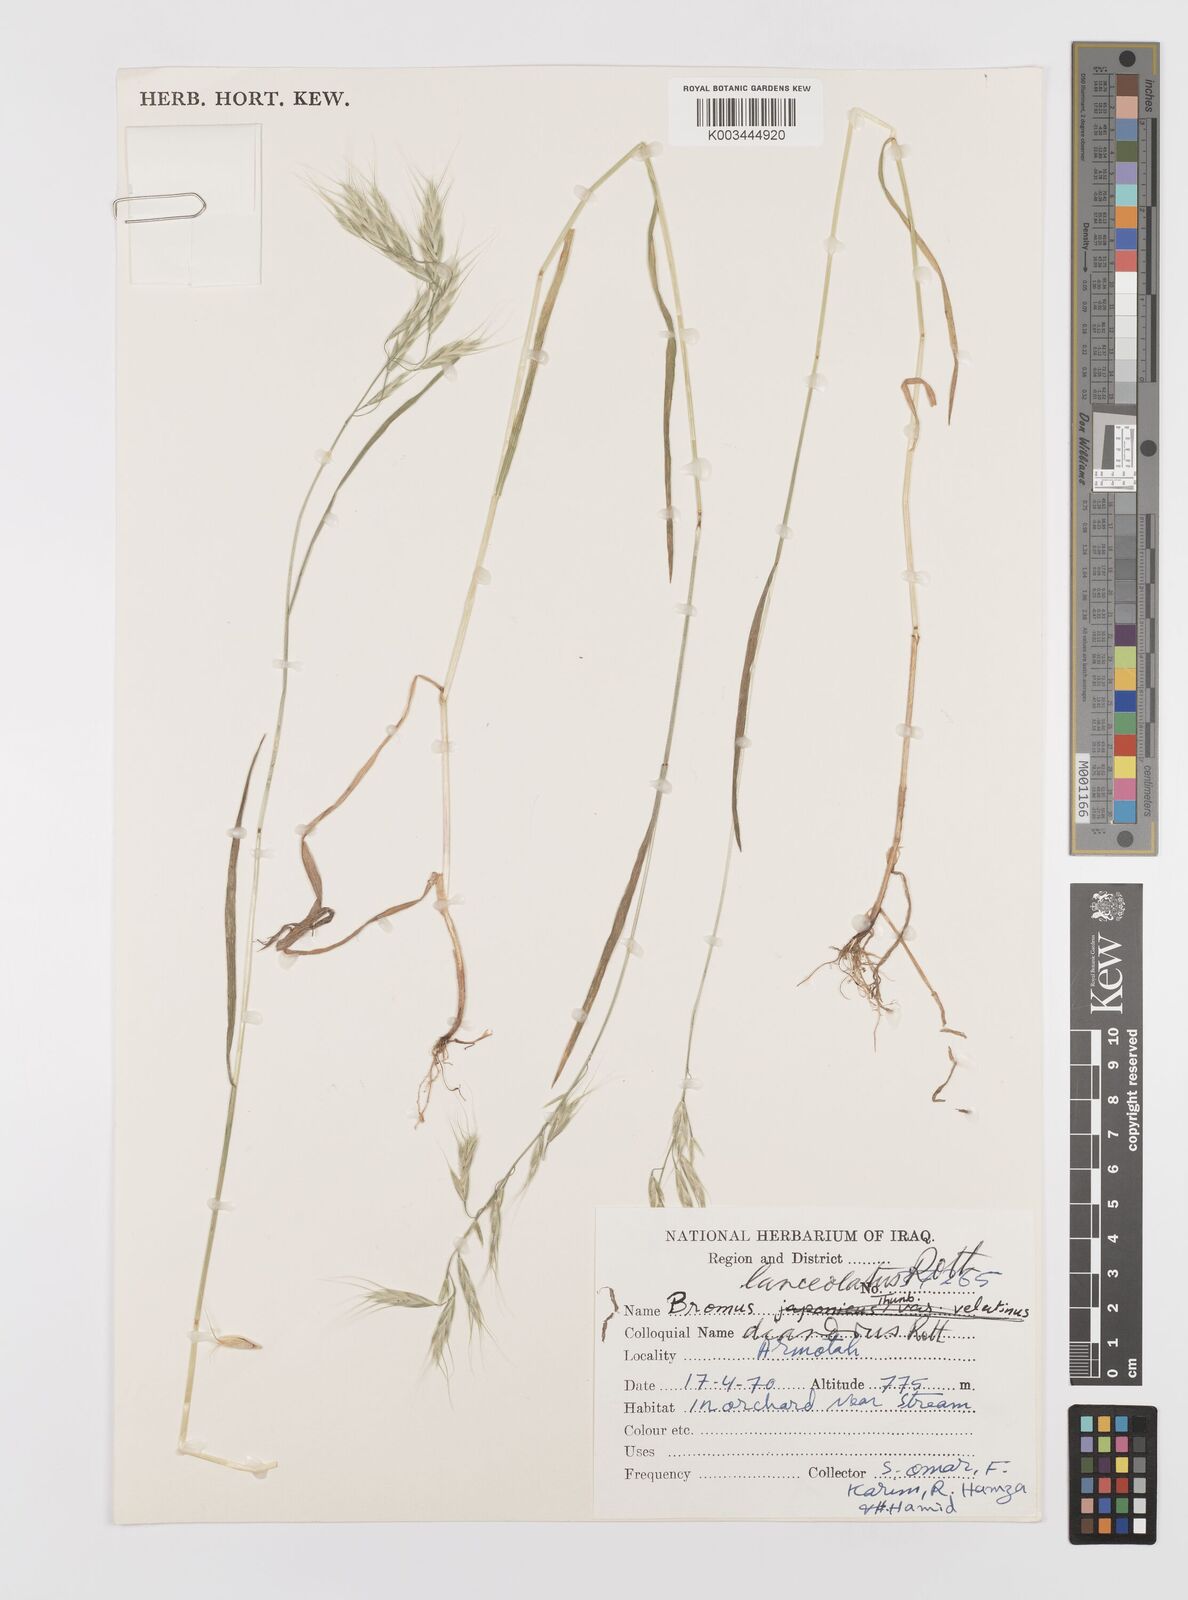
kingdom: Plantae
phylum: Tracheophyta
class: Liliopsida
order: Poales
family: Poaceae
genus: Bromus
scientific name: Bromus lanceolatus
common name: Mediterranean brome
